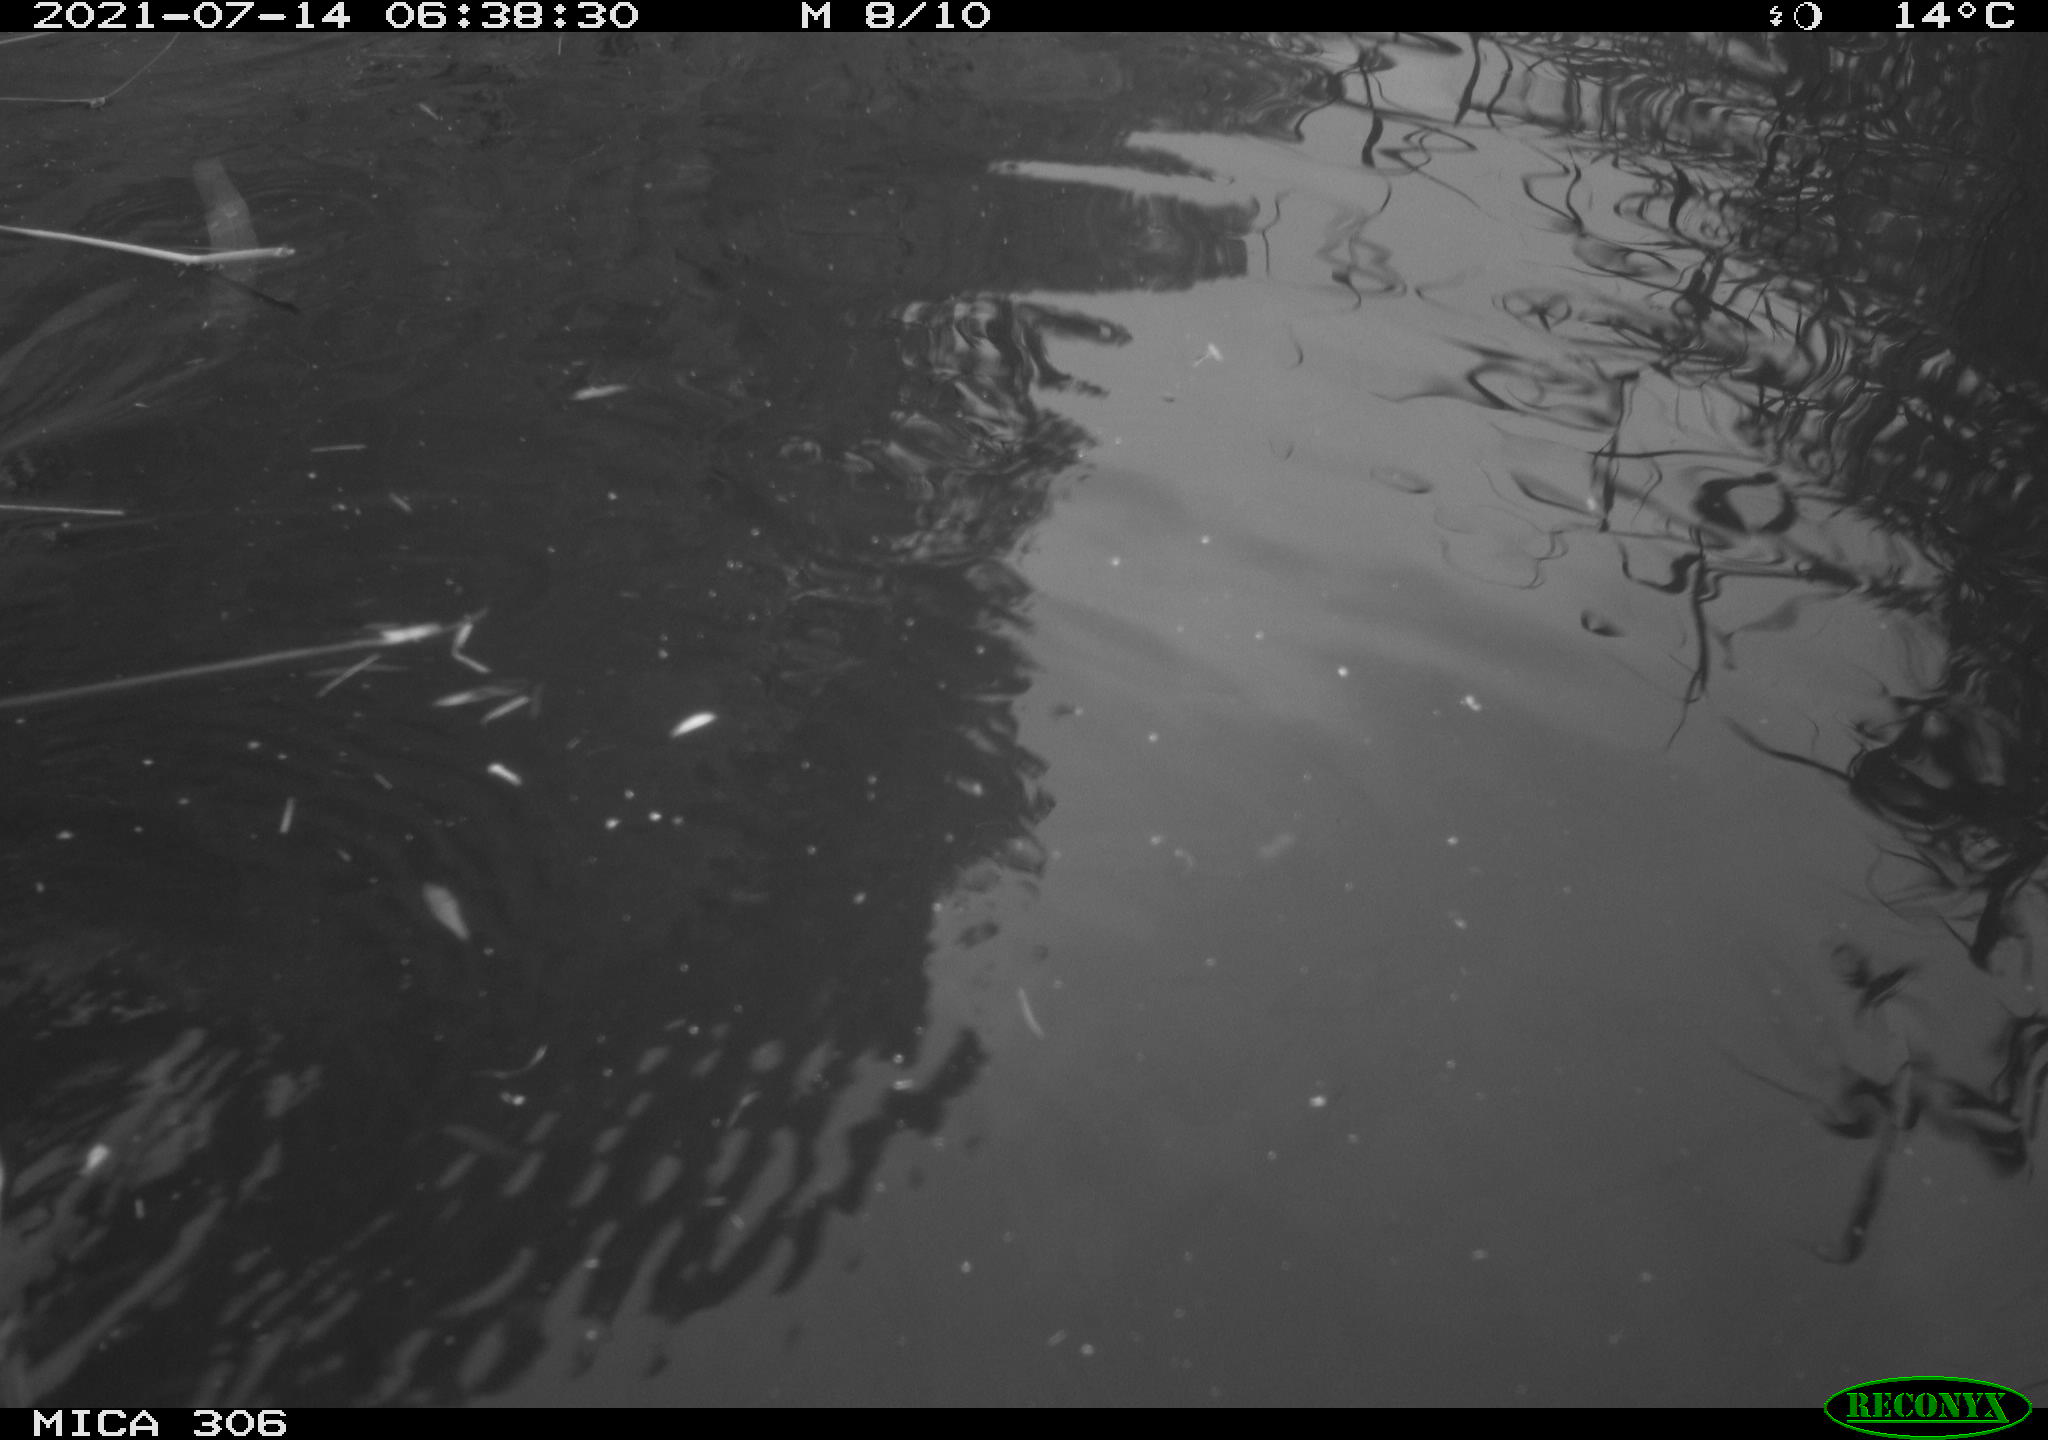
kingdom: Animalia
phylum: Chordata
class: Aves
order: Anseriformes
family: Anatidae
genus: Anas
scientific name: Anas platyrhynchos
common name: Mallard
